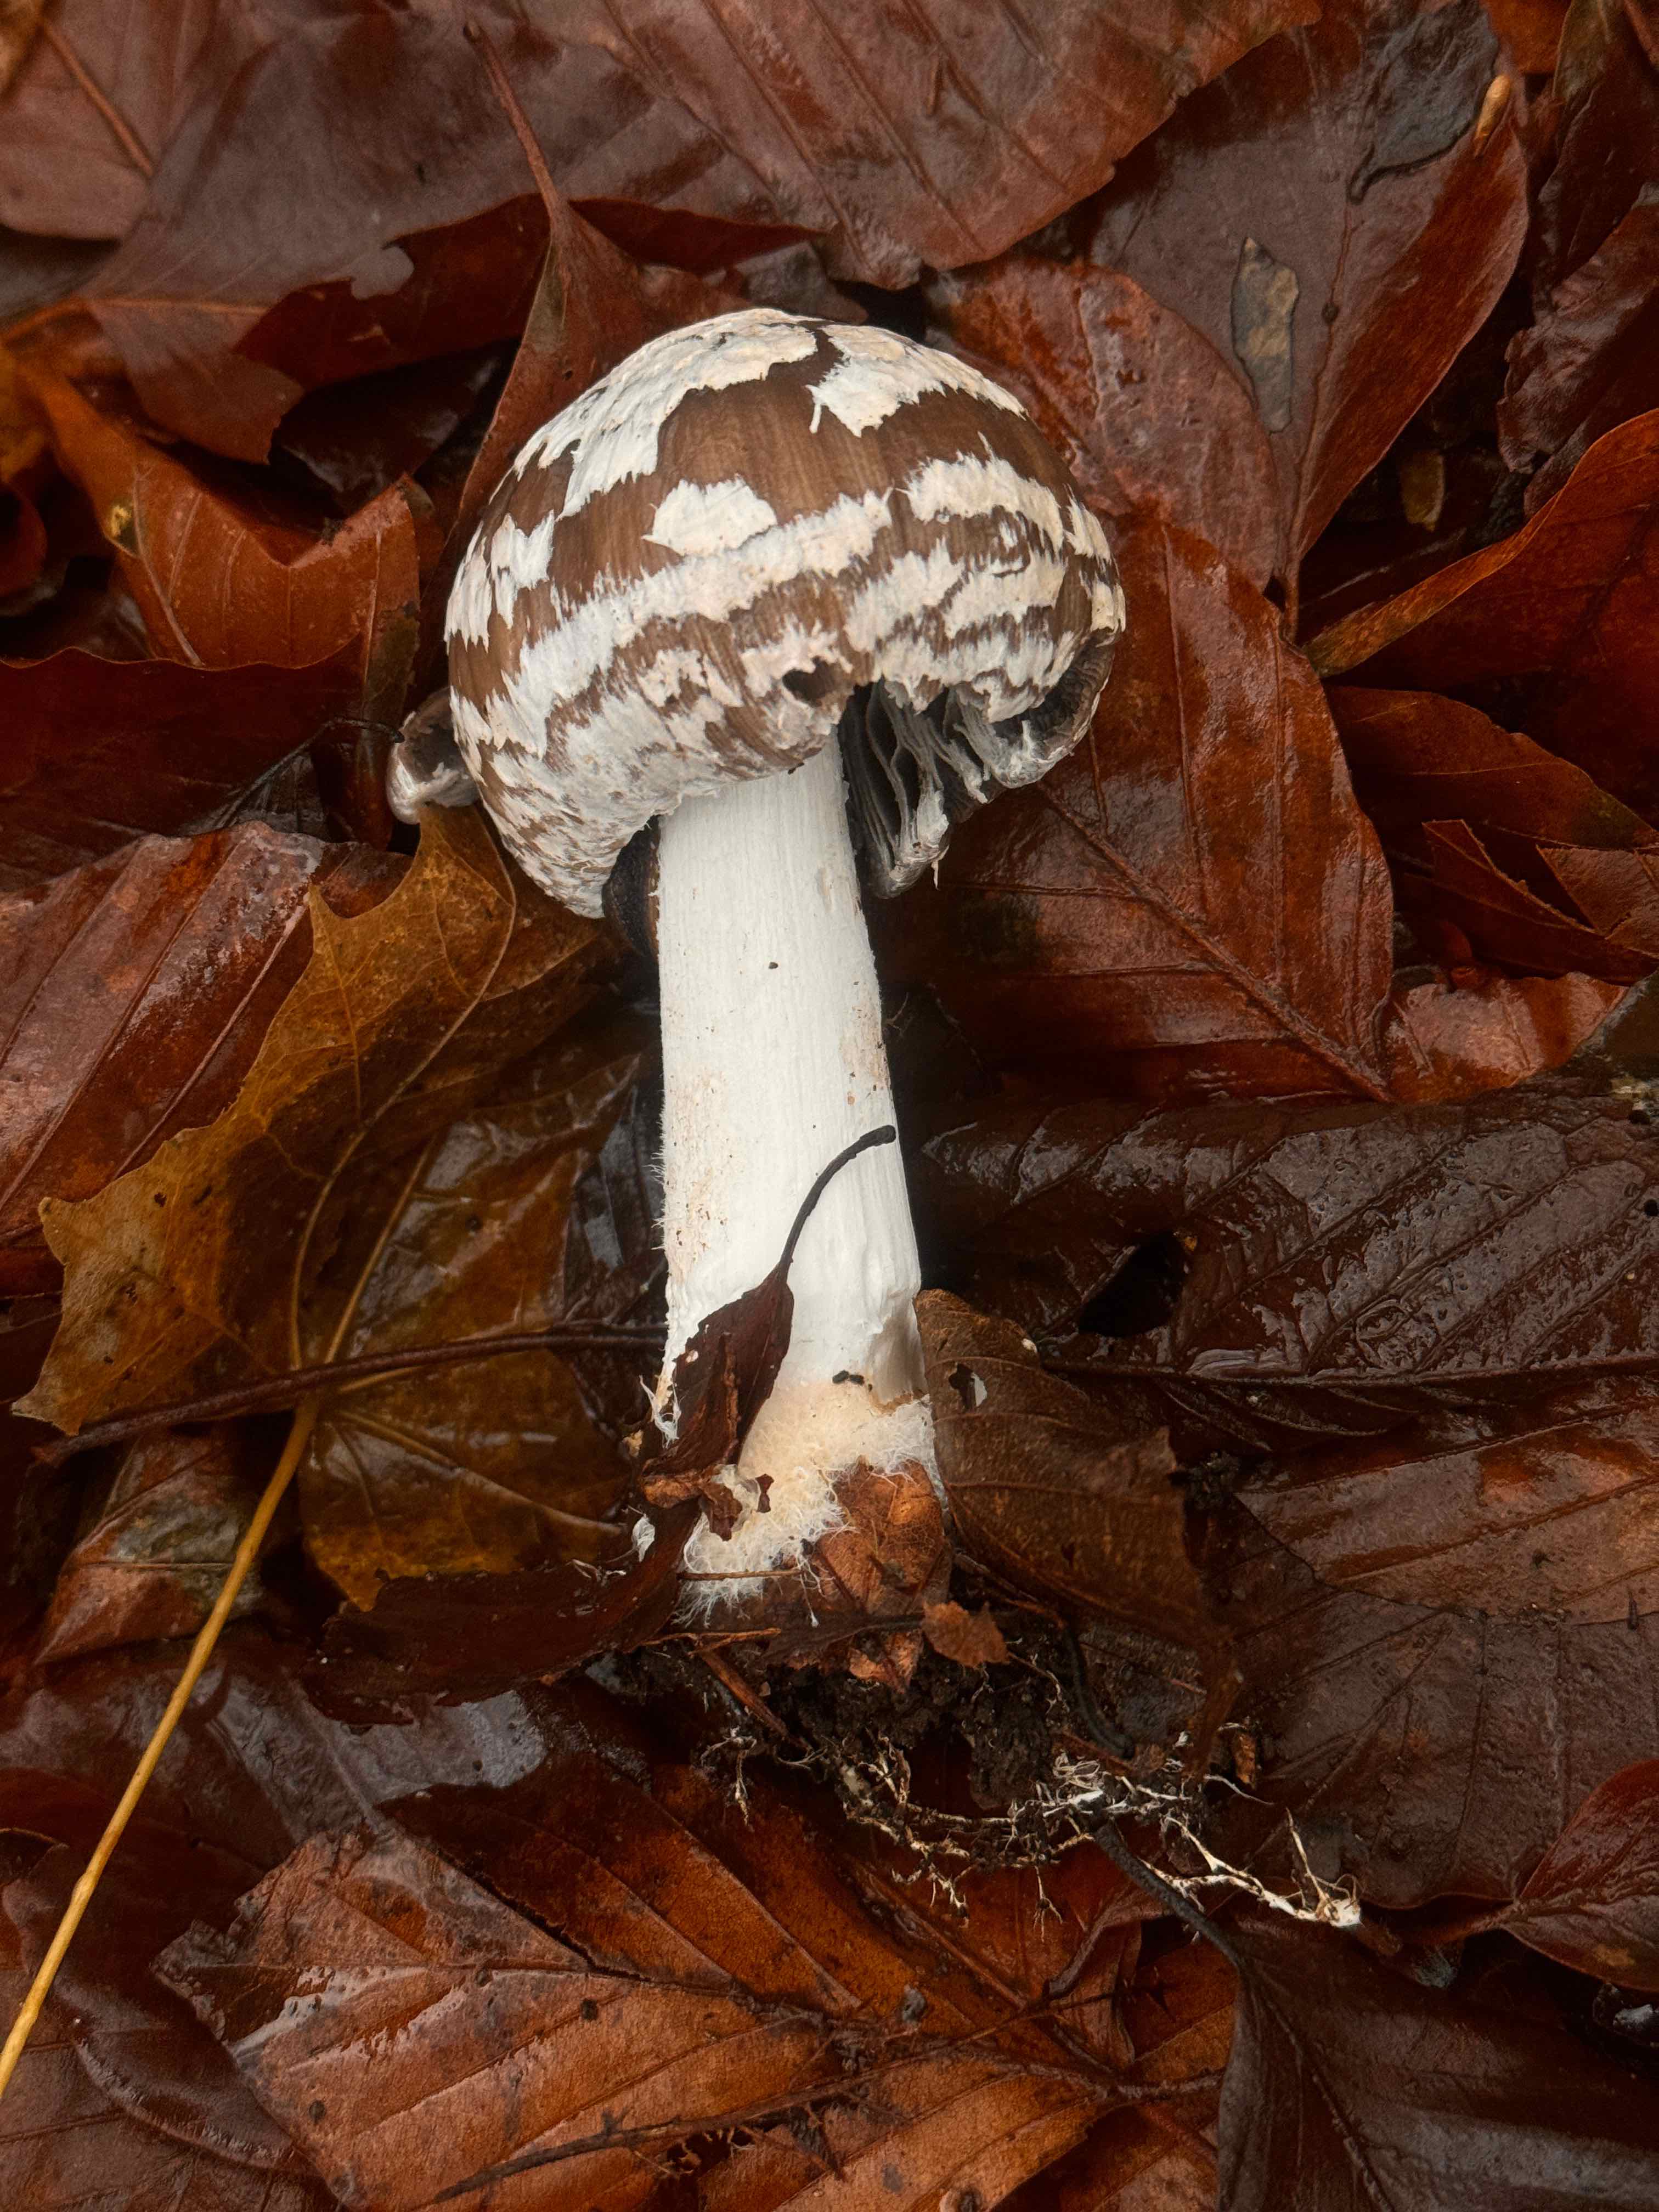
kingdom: Fungi
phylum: Basidiomycota
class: Agaricomycetes
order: Agaricales
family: Psathyrellaceae
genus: Coprinopsis
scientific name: Coprinopsis picacea
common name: skade-blækhat
